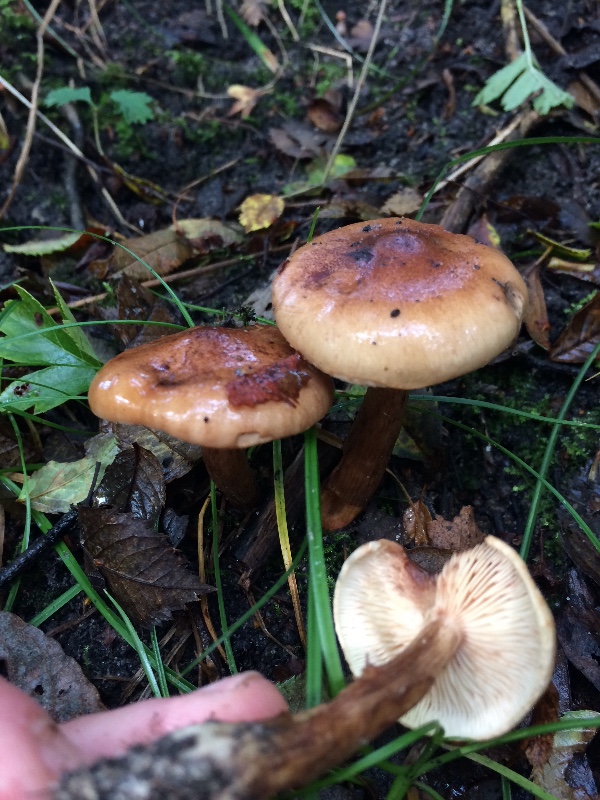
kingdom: Fungi
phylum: Basidiomycota
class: Agaricomycetes
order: Agaricales
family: Tricholomataceae
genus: Tricholoma
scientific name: Tricholoma fulvum
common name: birke-ridderhat
